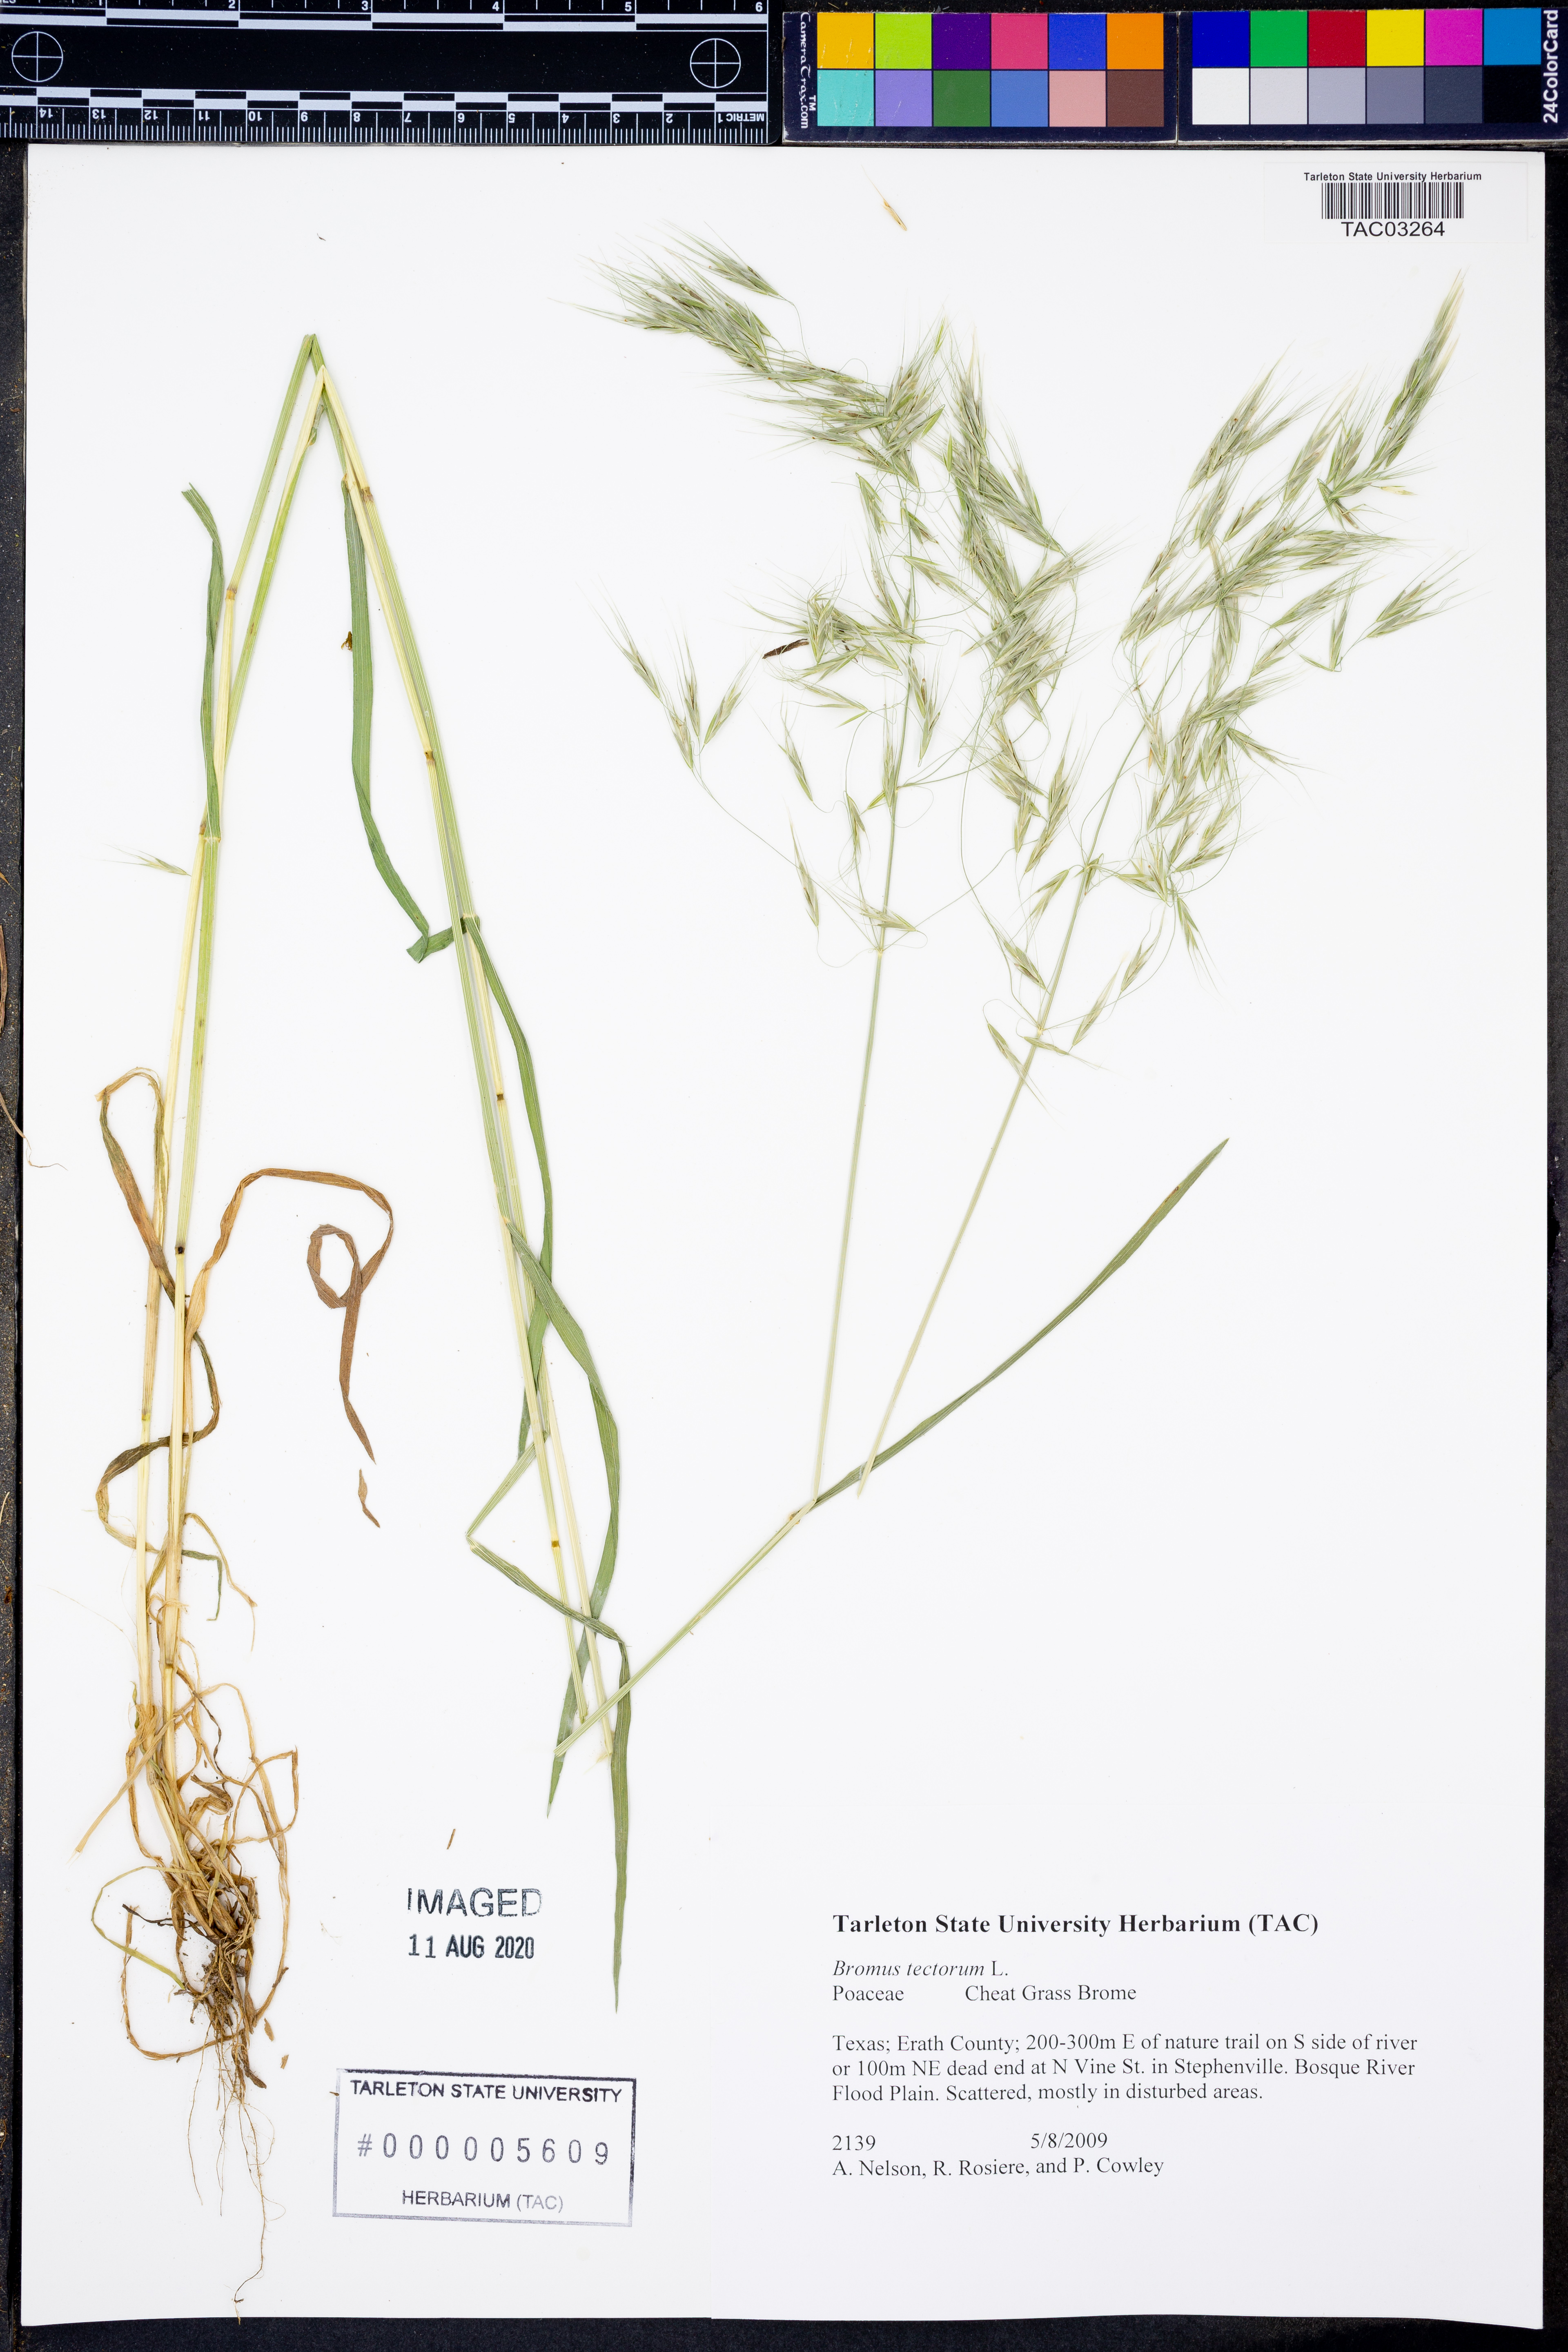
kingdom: Plantae
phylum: Tracheophyta
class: Liliopsida
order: Poales
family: Poaceae
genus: Bromus
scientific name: Bromus tectorum
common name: Cheatgrass
